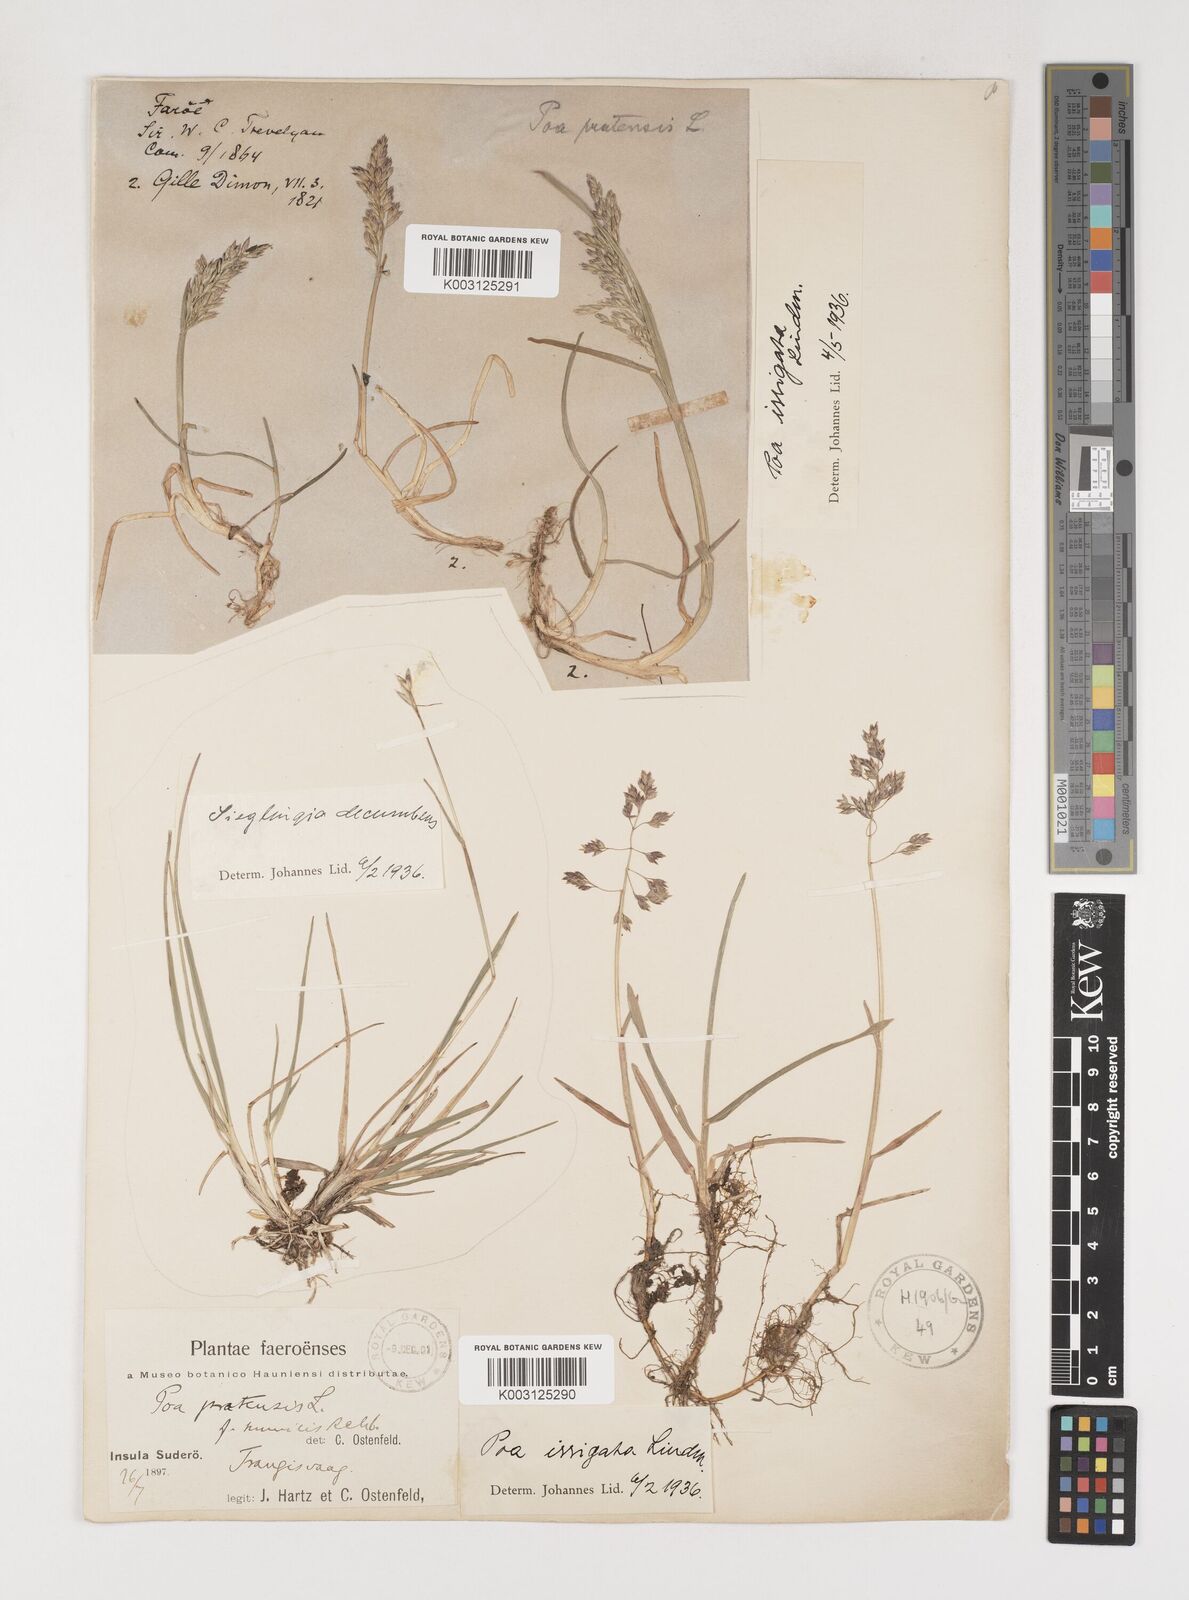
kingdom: Plantae
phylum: Tracheophyta
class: Liliopsida
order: Poales
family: Poaceae
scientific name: Poaceae
